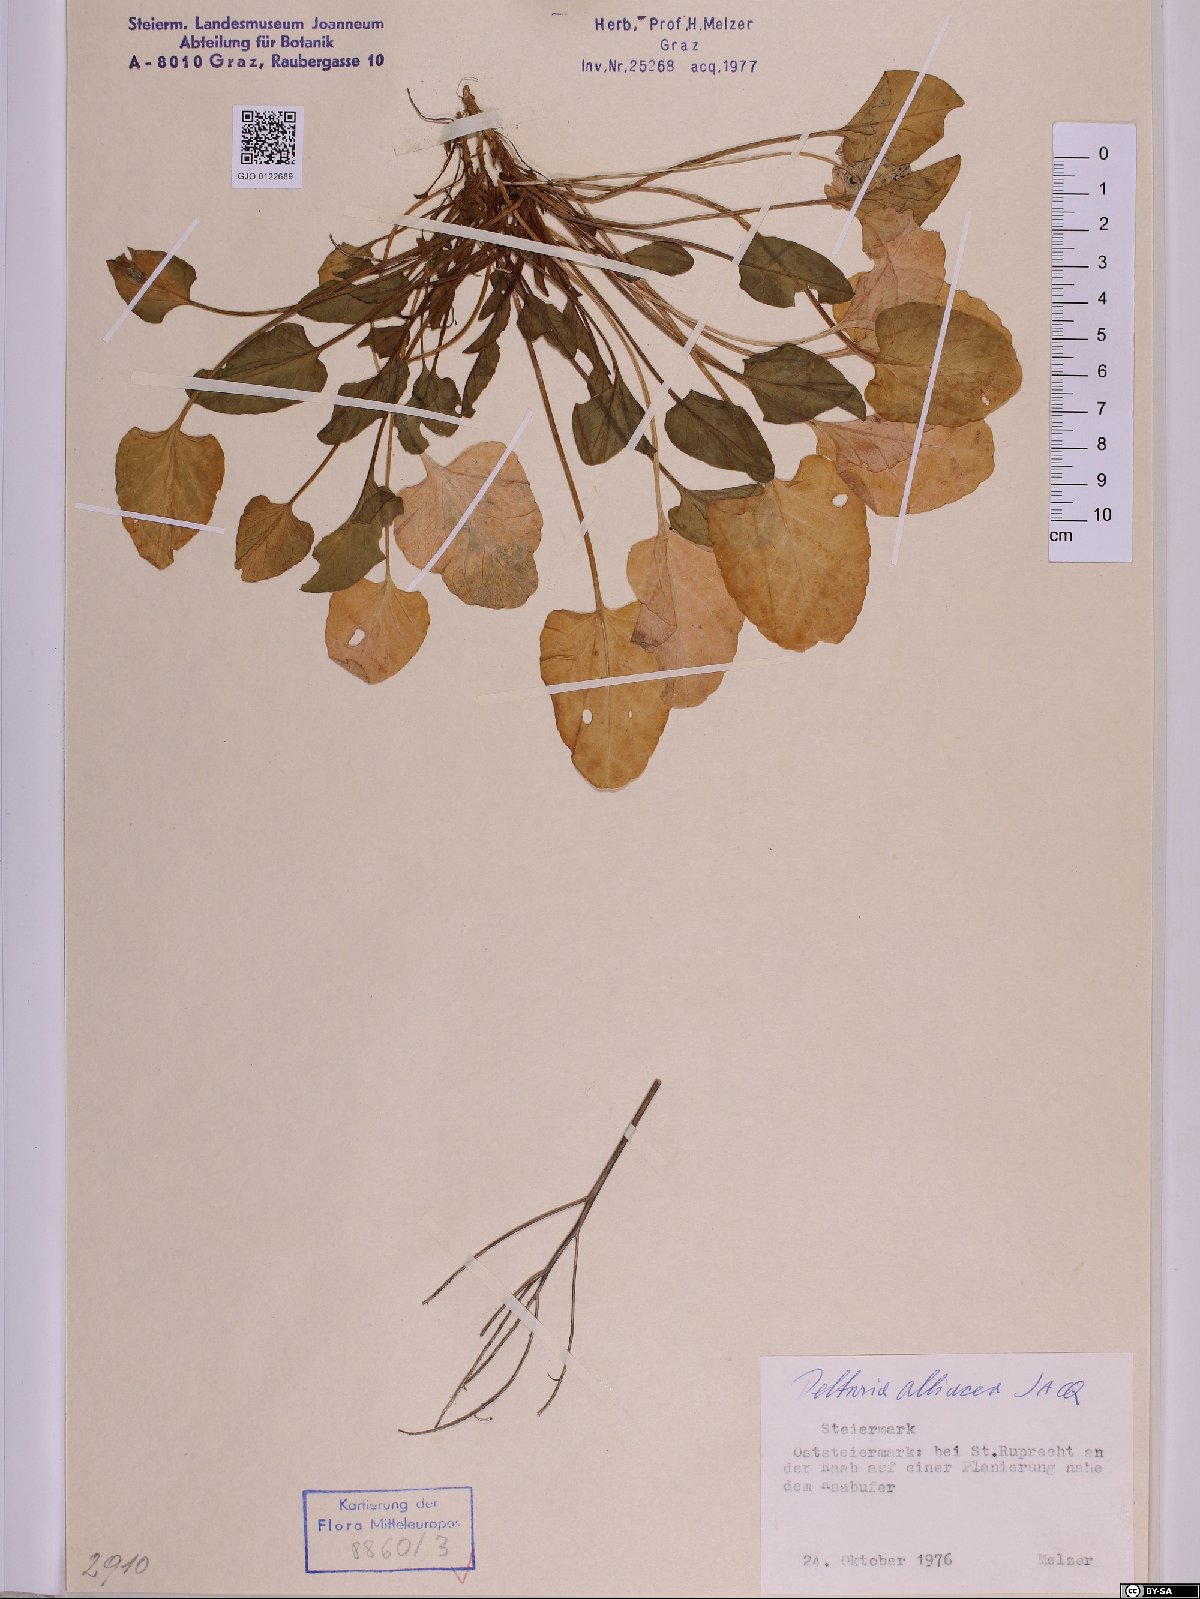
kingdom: Plantae
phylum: Tracheophyta
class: Magnoliopsida
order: Brassicales
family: Brassicaceae
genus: Peltaria
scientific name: Peltaria alliacea
